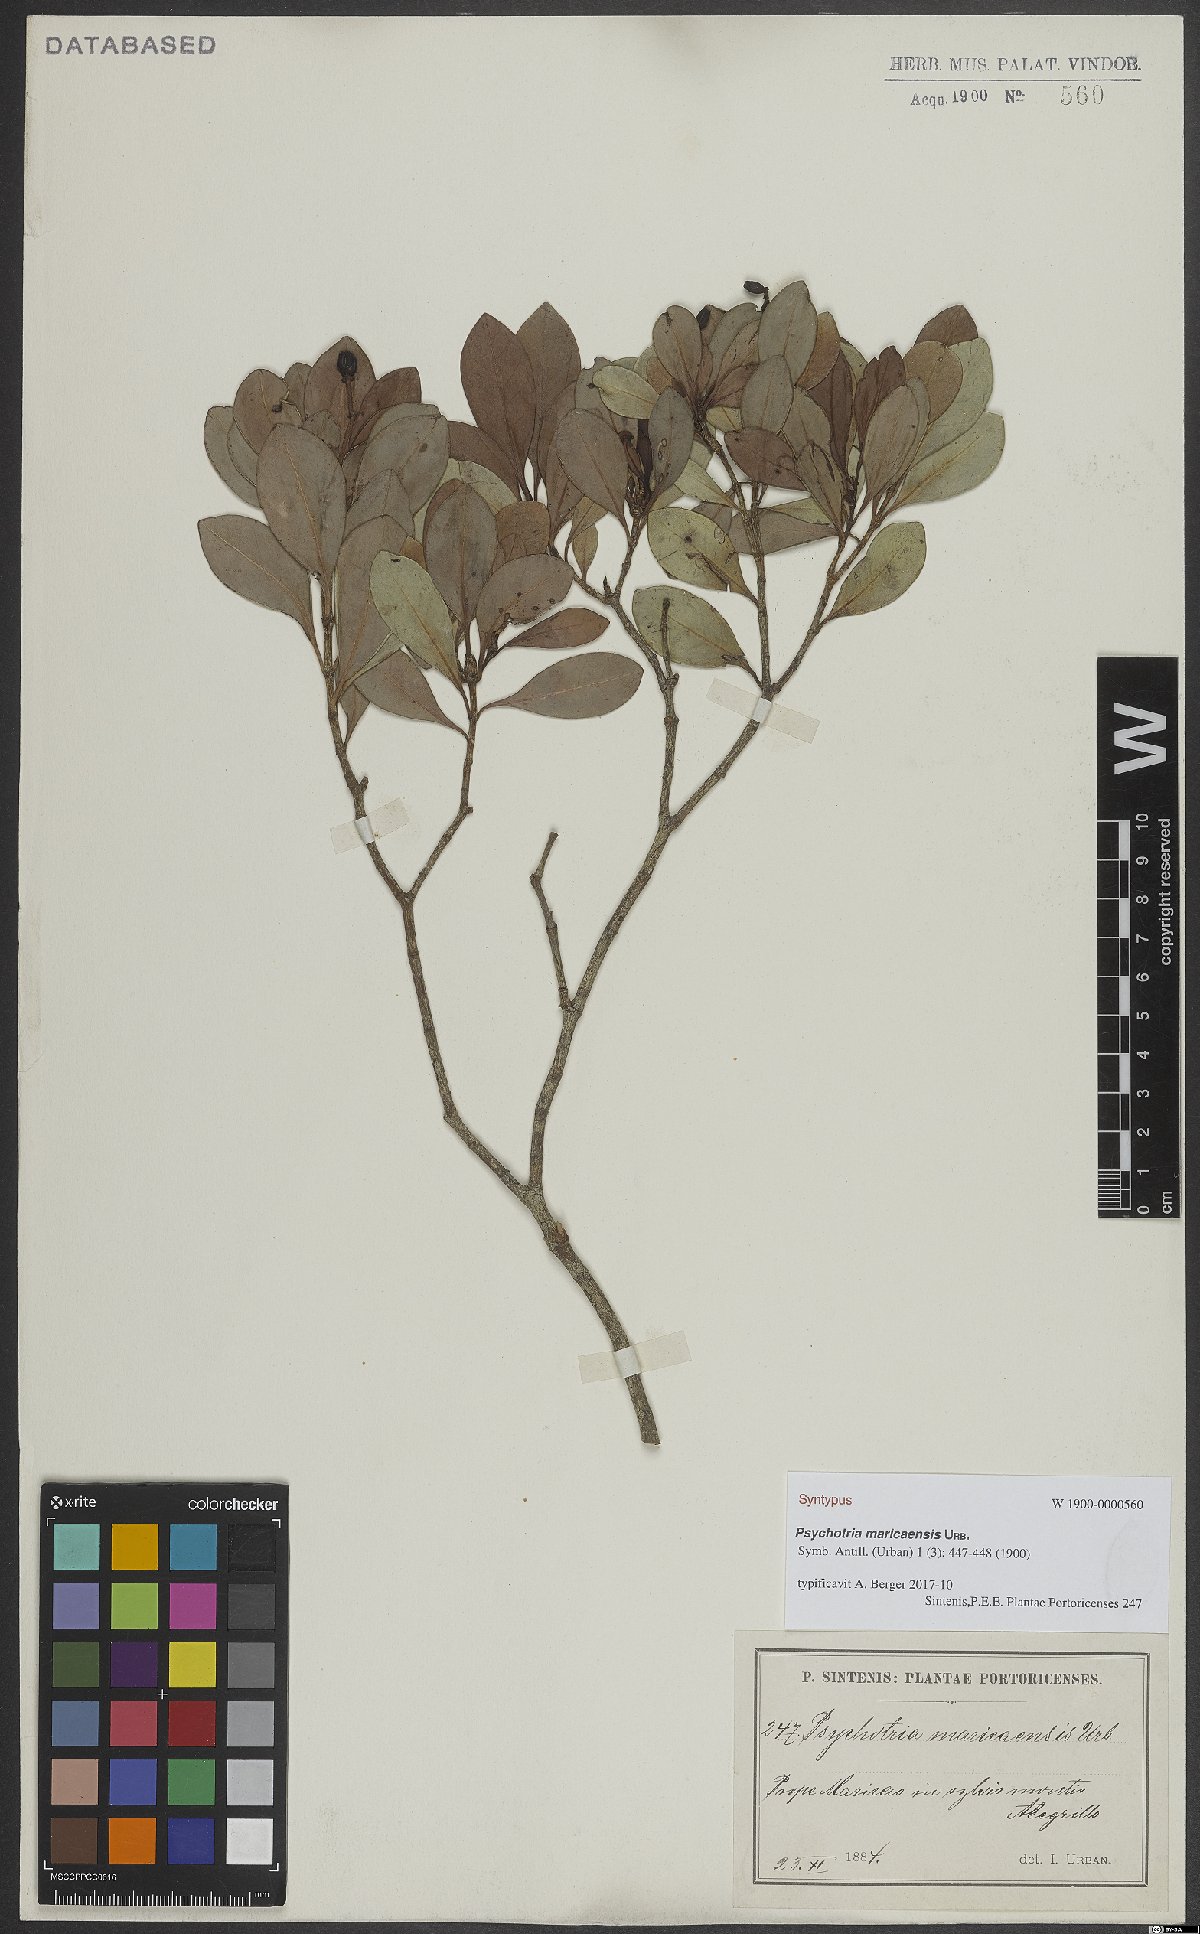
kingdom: Plantae
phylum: Tracheophyta
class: Magnoliopsida
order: Gentianales
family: Rubiaceae
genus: Psychotria
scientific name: Psychotria maricaensis
